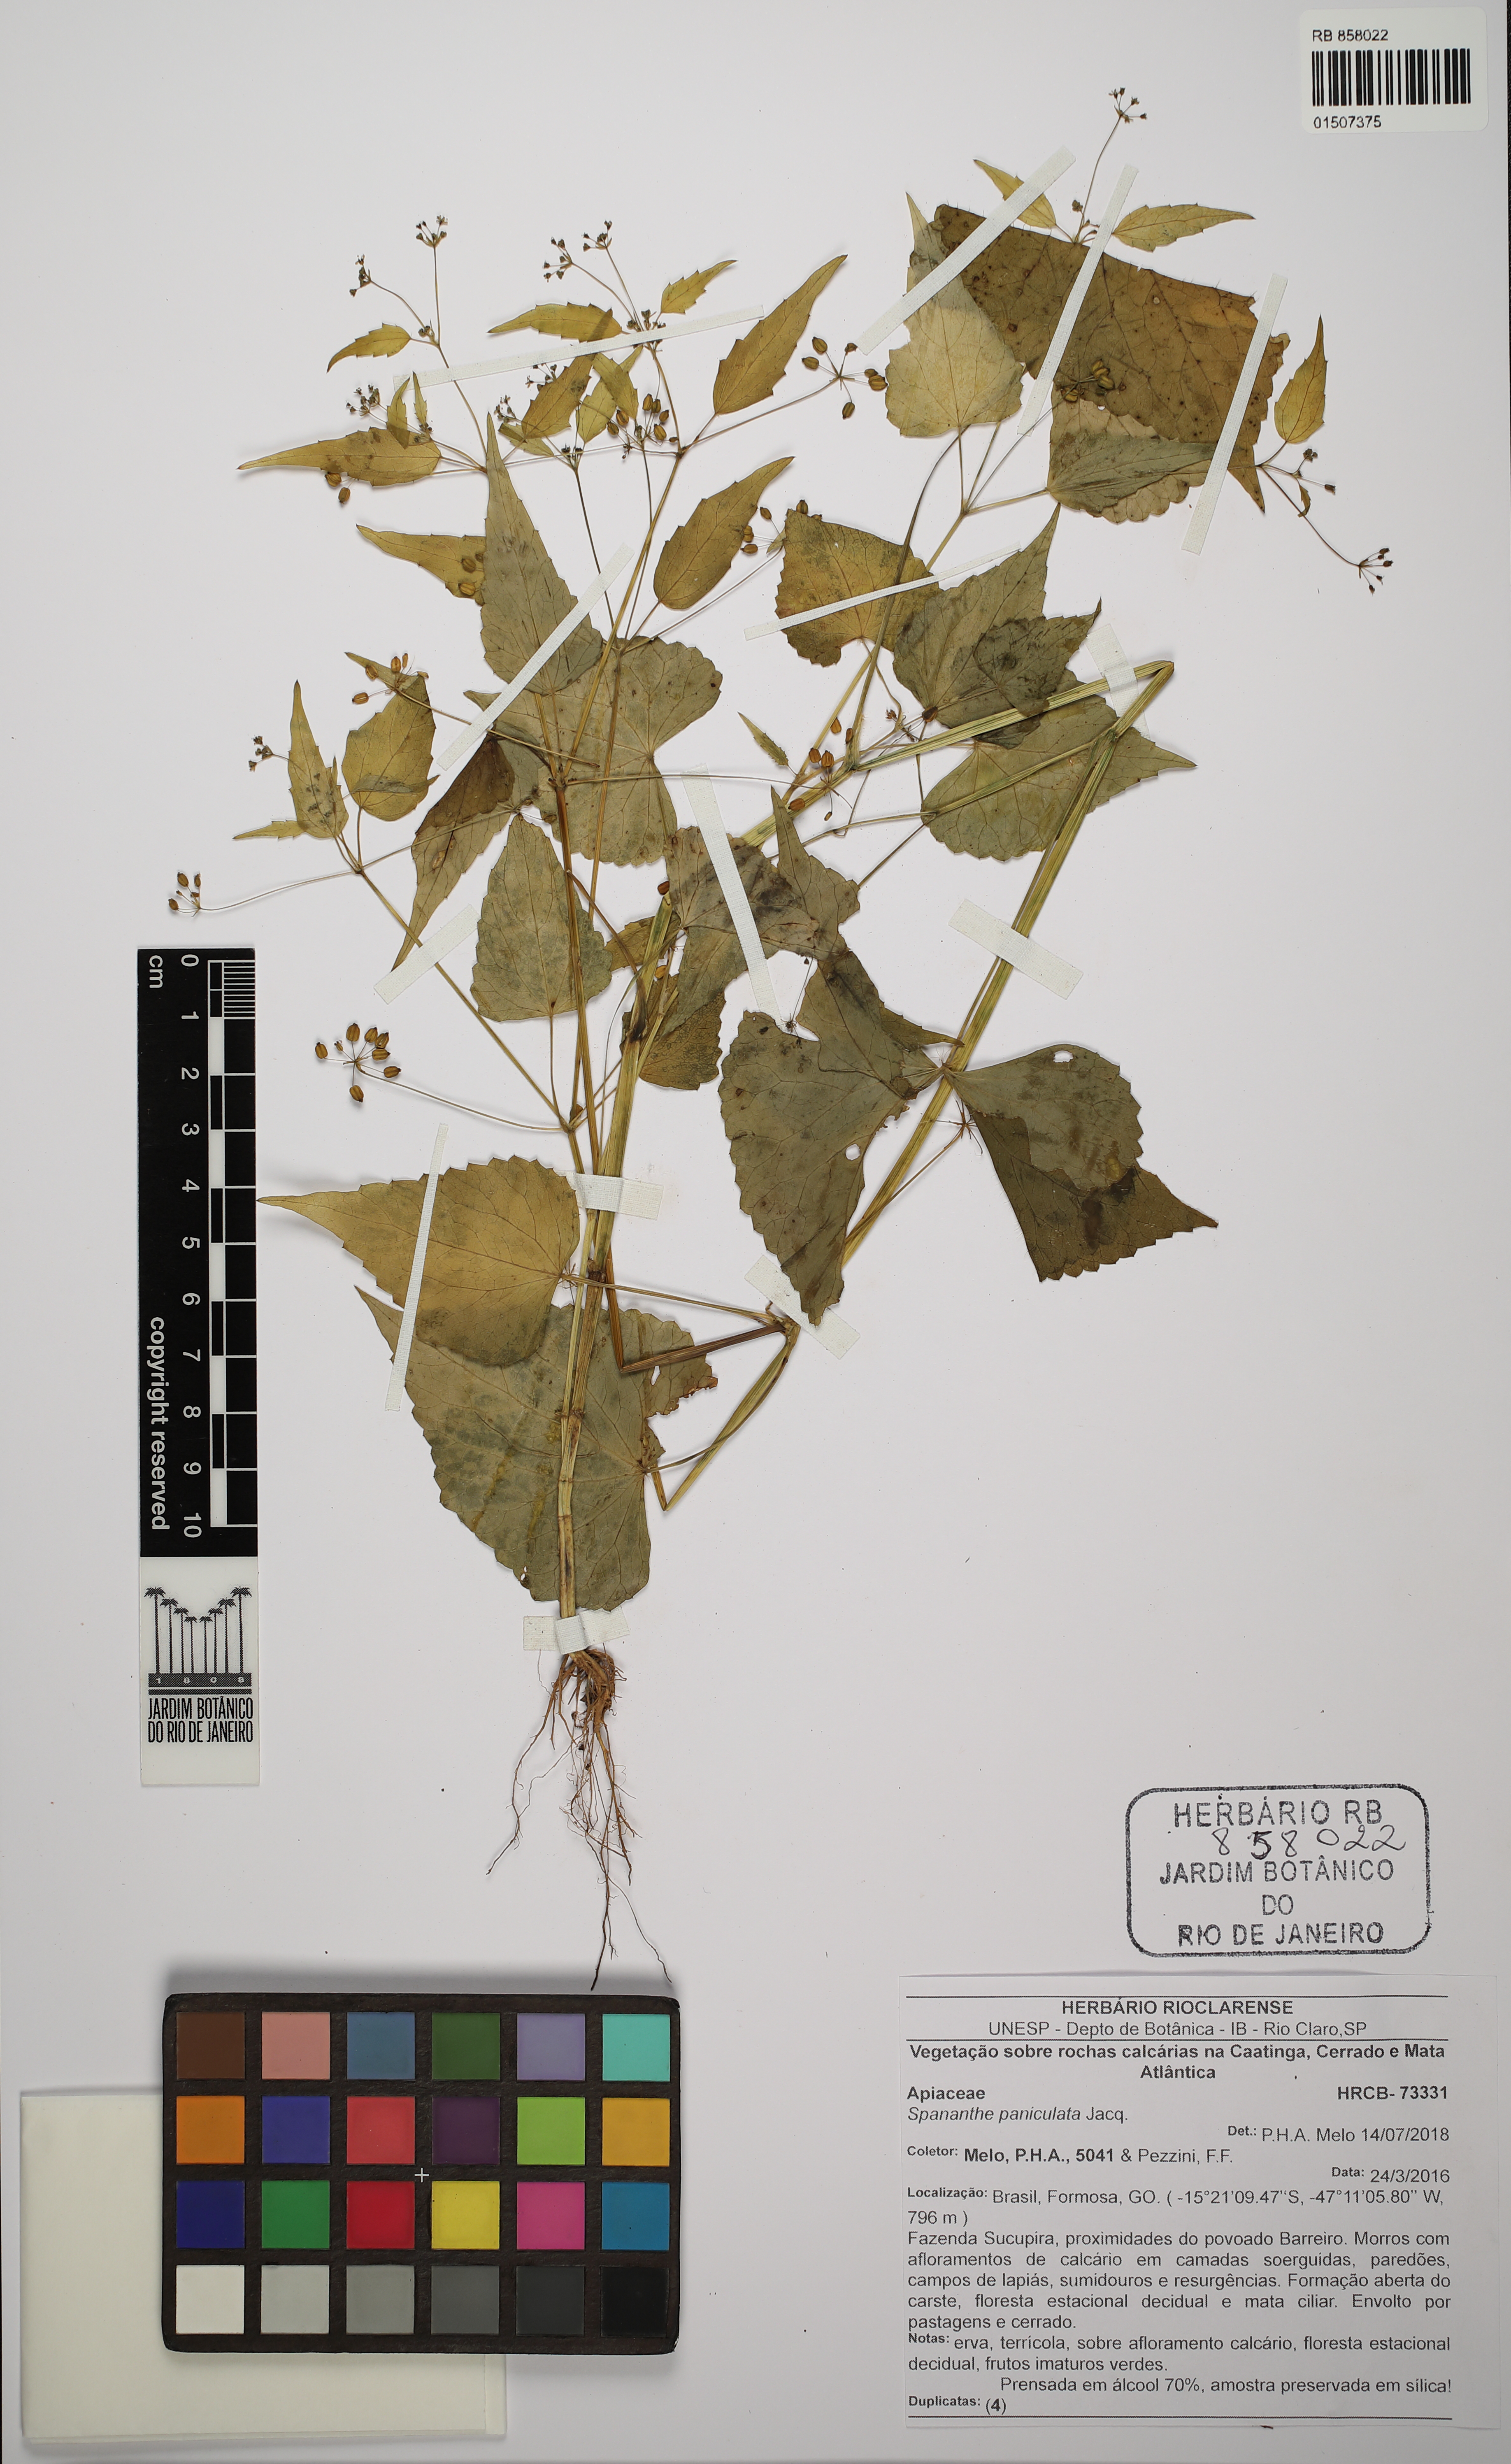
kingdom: Plantae
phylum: Tracheophyta
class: Magnoliopsida
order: Apiales
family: Apiaceae
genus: Spananthe
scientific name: Spananthe paniculata
